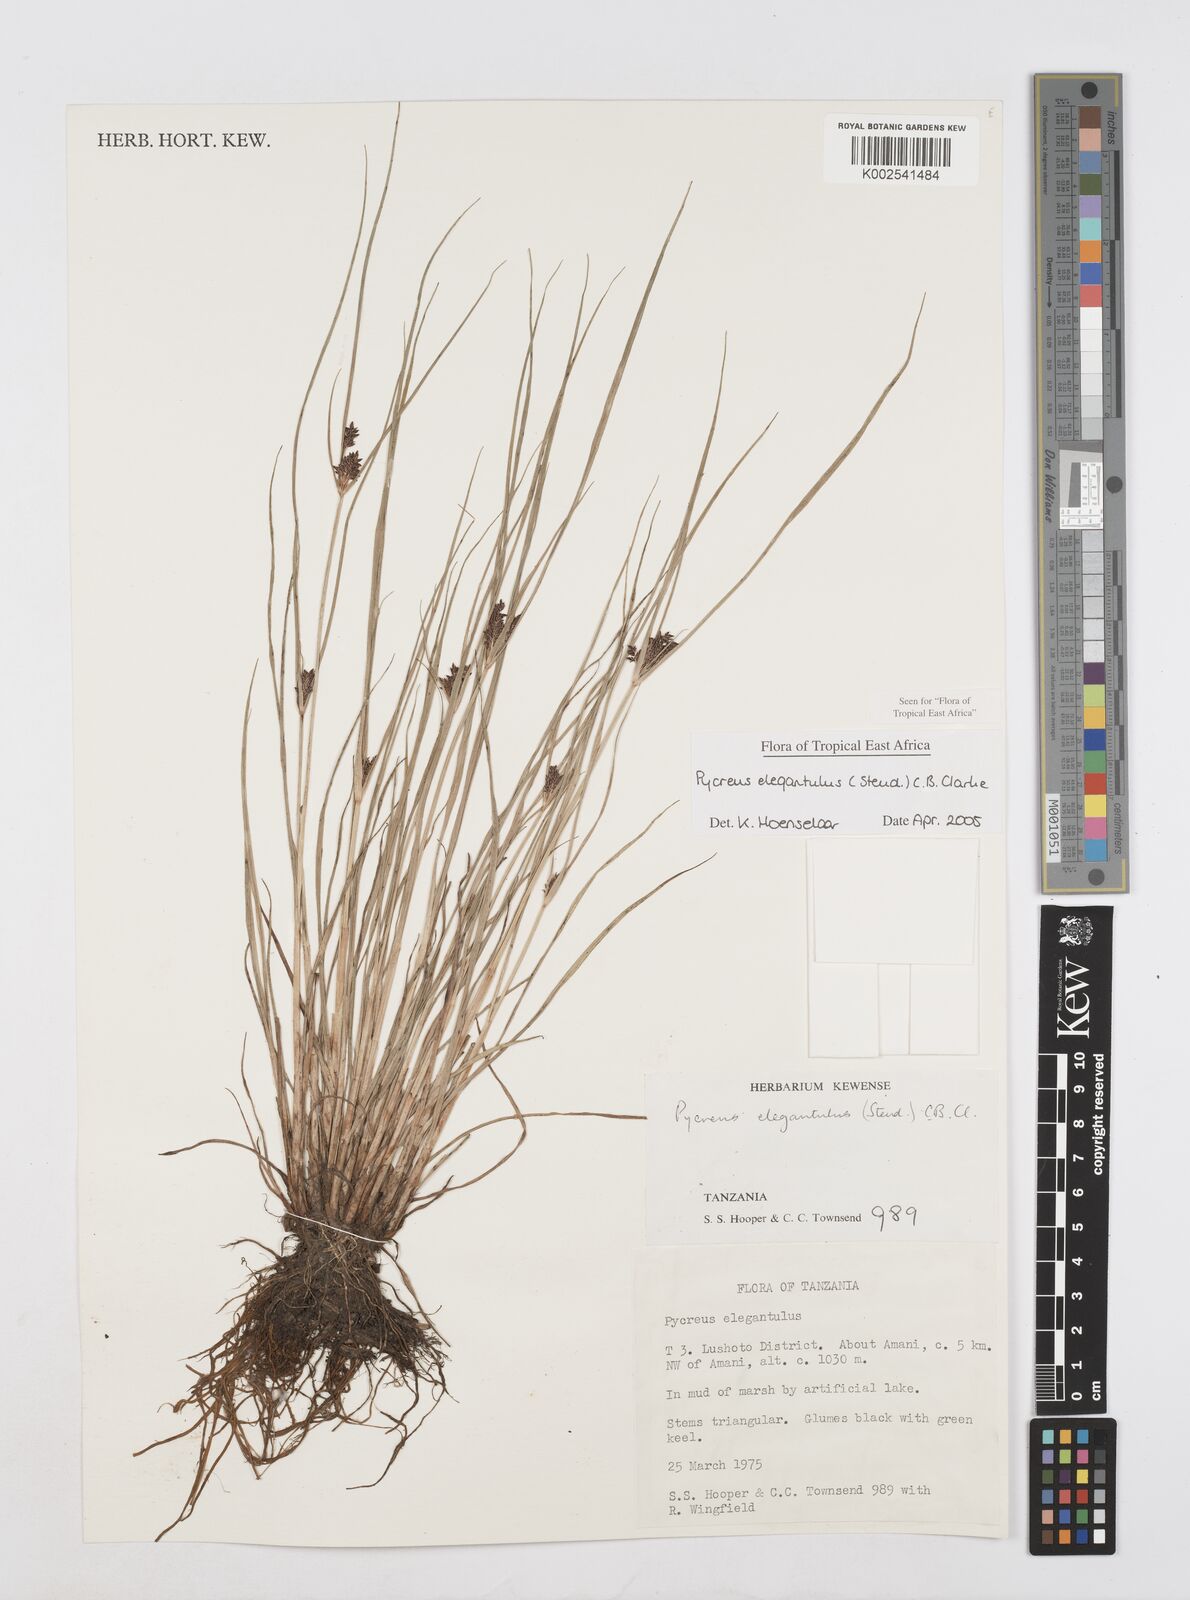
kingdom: Plantae
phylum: Tracheophyta
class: Liliopsida
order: Poales
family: Cyperaceae
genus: Cyperus
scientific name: Cyperus elegantulus
